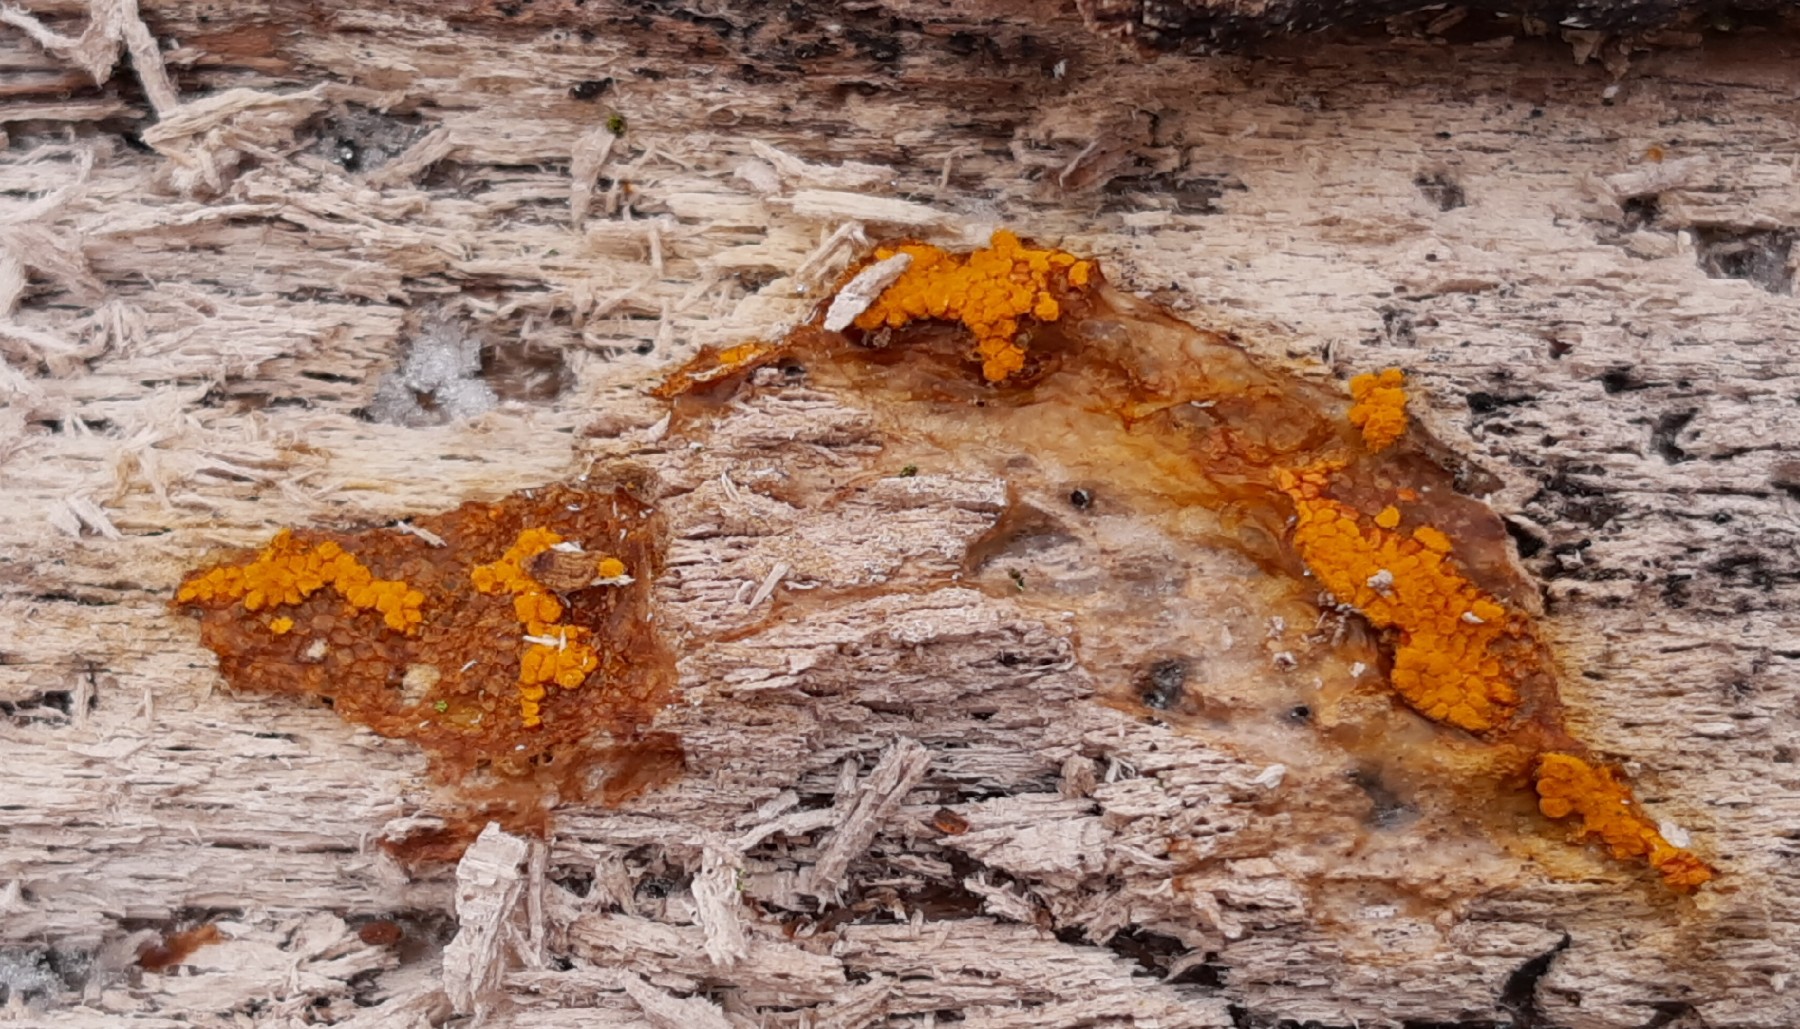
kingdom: Protozoa
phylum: Mycetozoa
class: Myxomycetes
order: Trichiales
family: Trichiaceae
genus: Trichia
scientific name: Trichia scabra
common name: tæppe-hårbold
